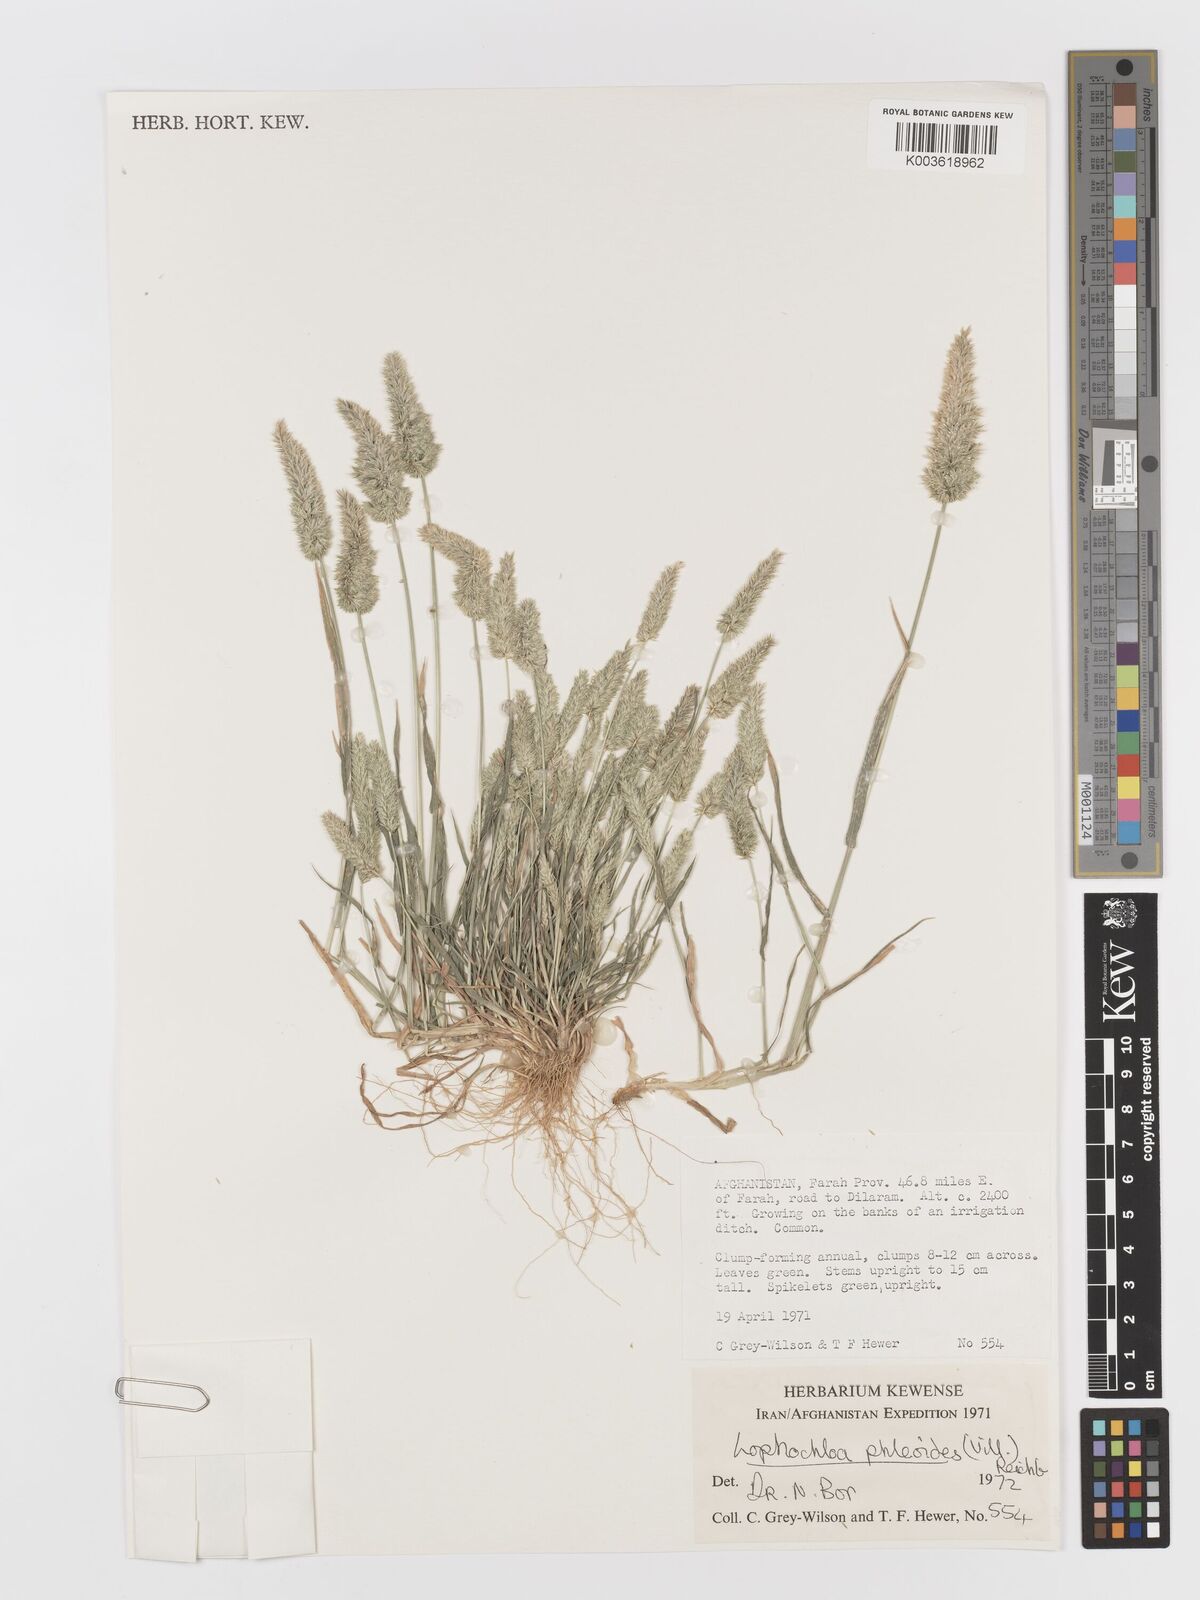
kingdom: Plantae
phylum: Tracheophyta
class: Liliopsida
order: Poales
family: Poaceae
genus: Rostraria
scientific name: Rostraria cristata
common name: Mediterranean hair-grass
